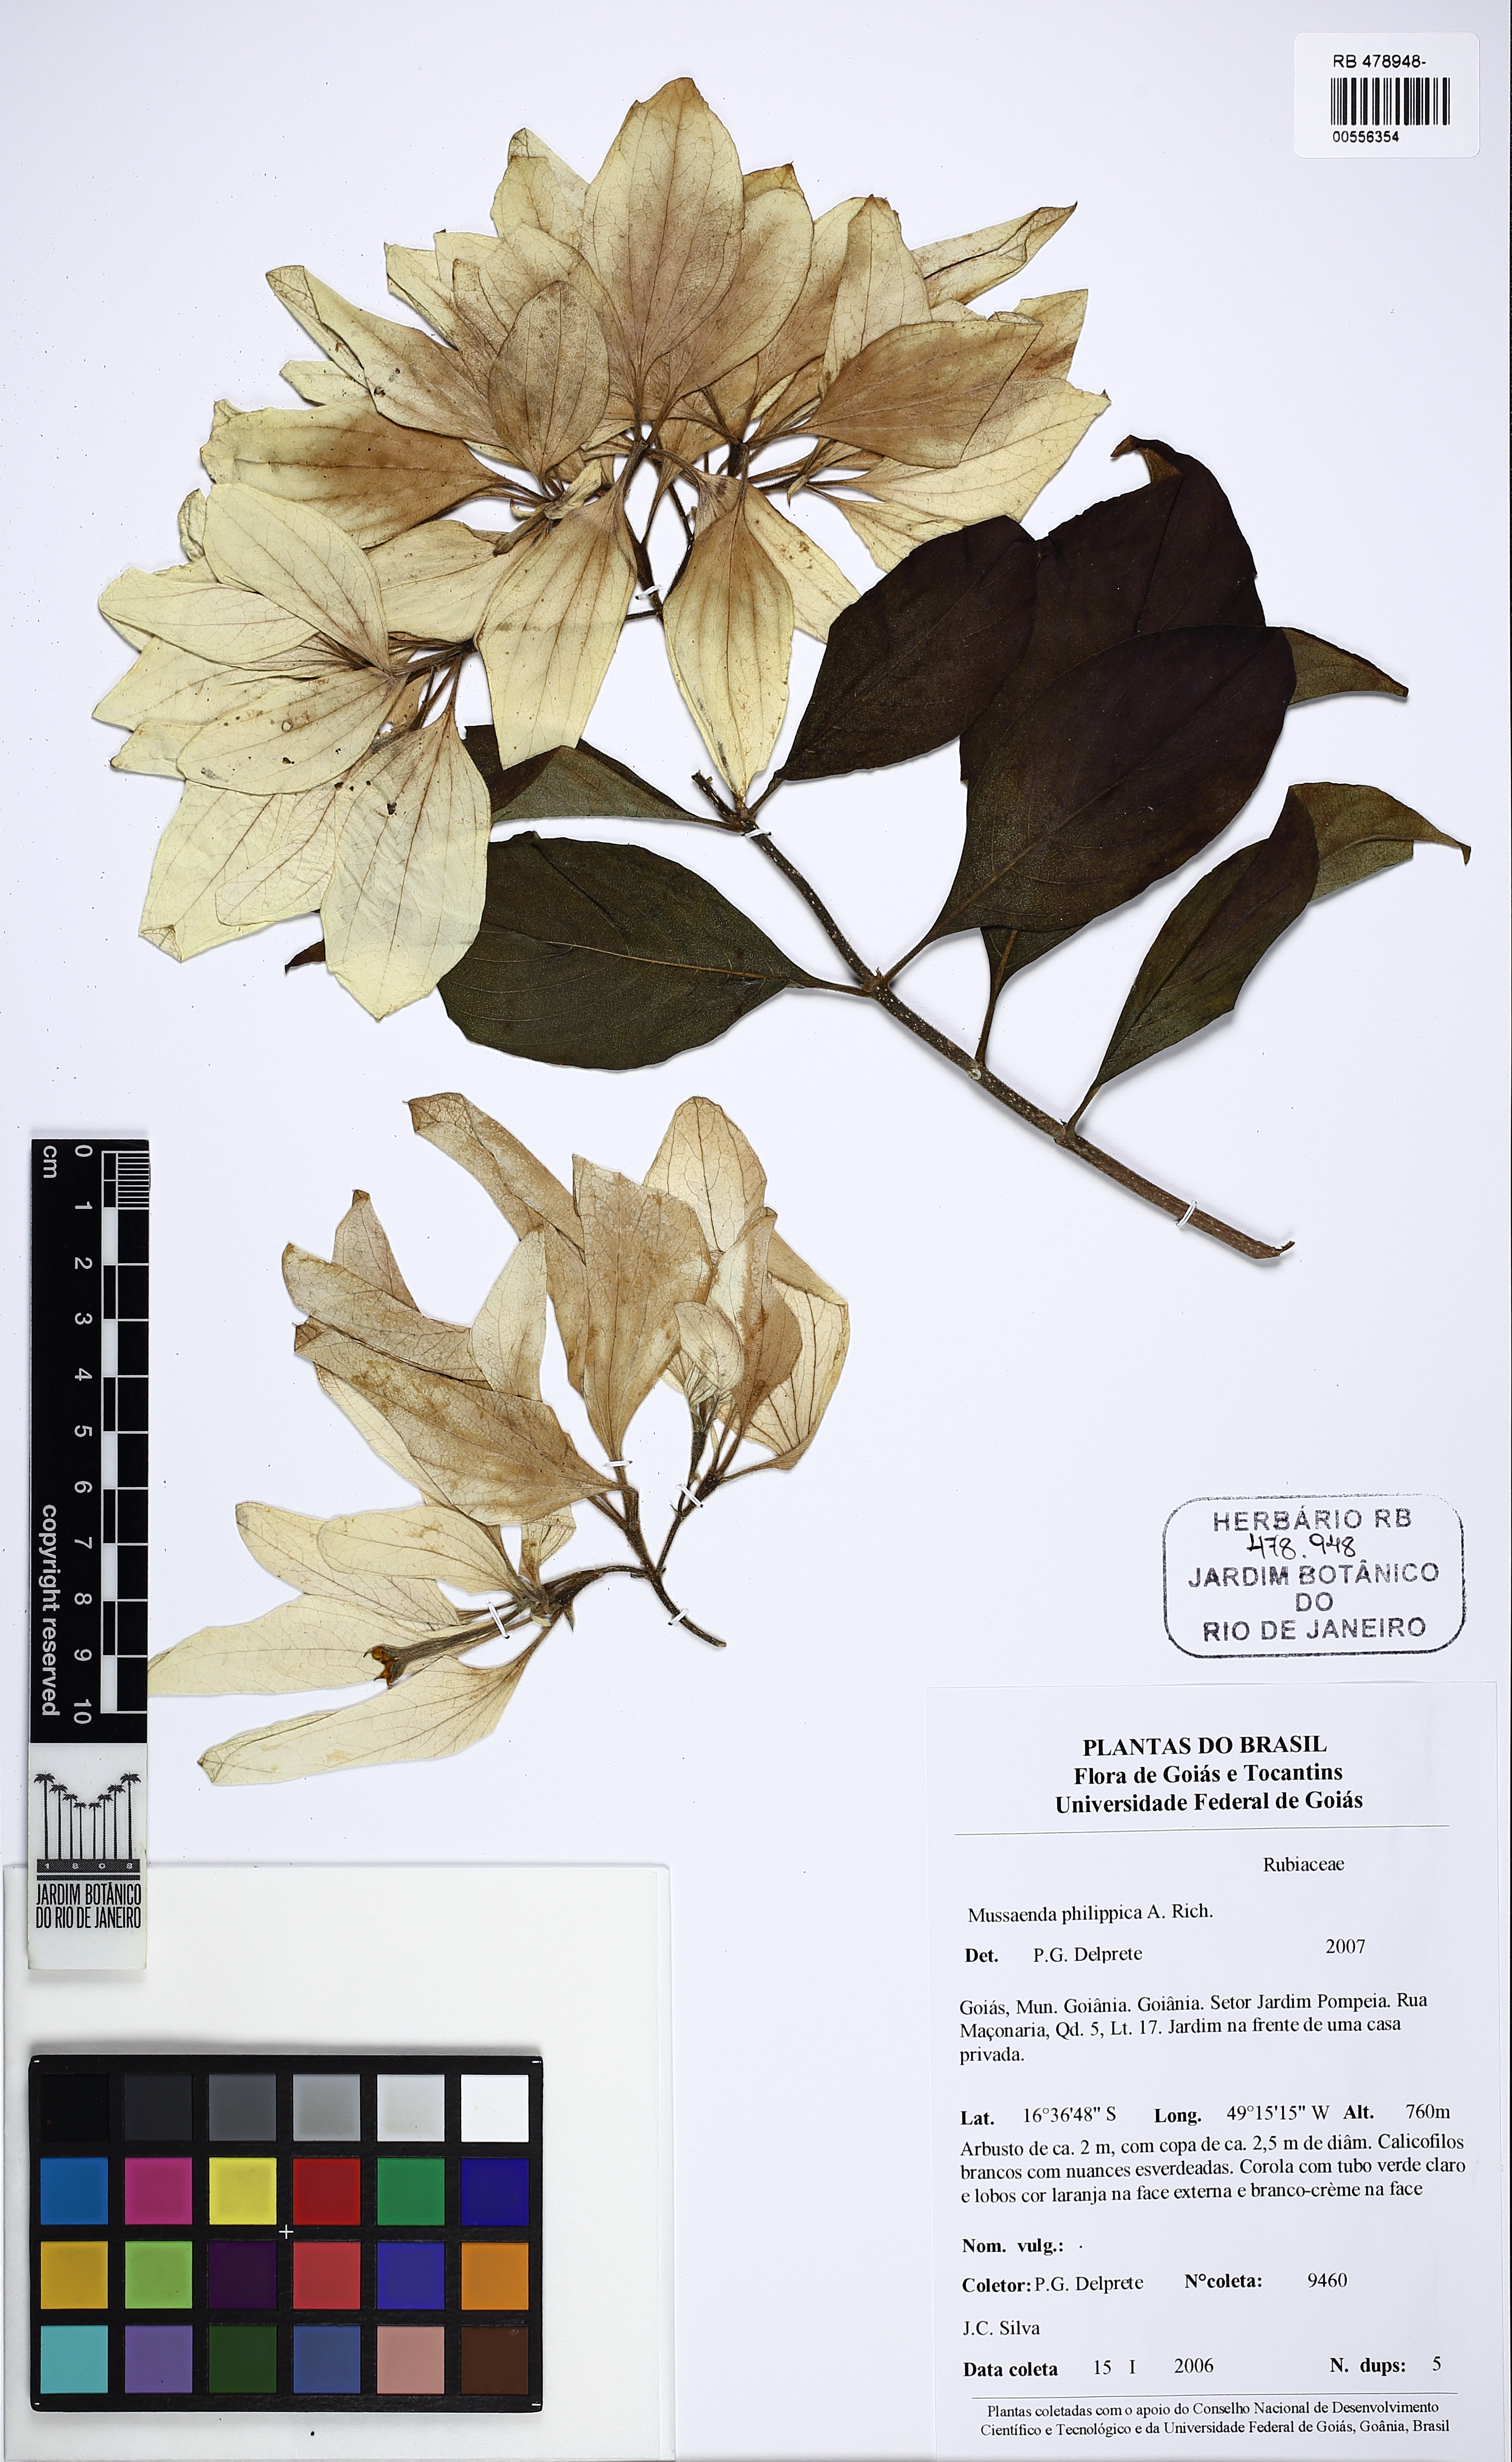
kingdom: Plantae
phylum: Tracheophyta
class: Magnoliopsida
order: Gentianales
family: Rubiaceae
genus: Mussaenda
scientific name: Mussaenda philippica
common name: Philippine mussaenda
